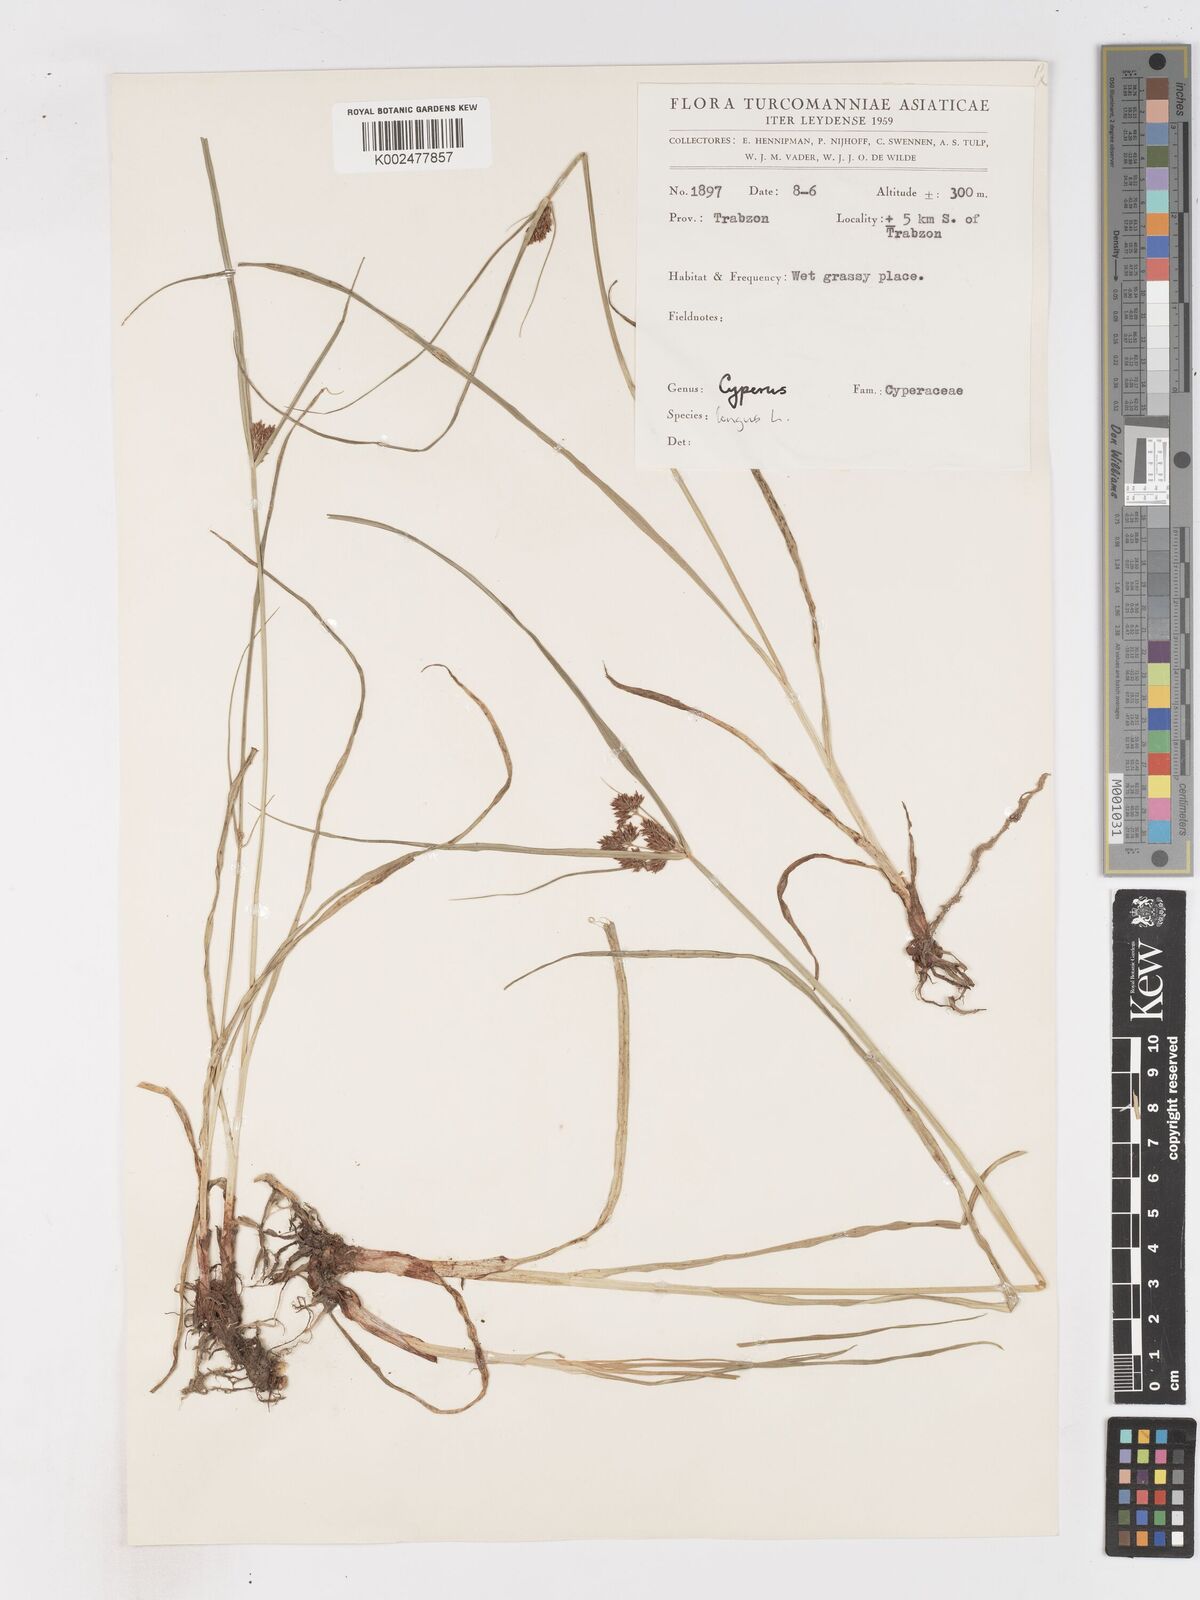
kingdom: Plantae
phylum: Tracheophyta
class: Liliopsida
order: Poales
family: Cyperaceae
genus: Cyperus
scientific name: Cyperus patulus
